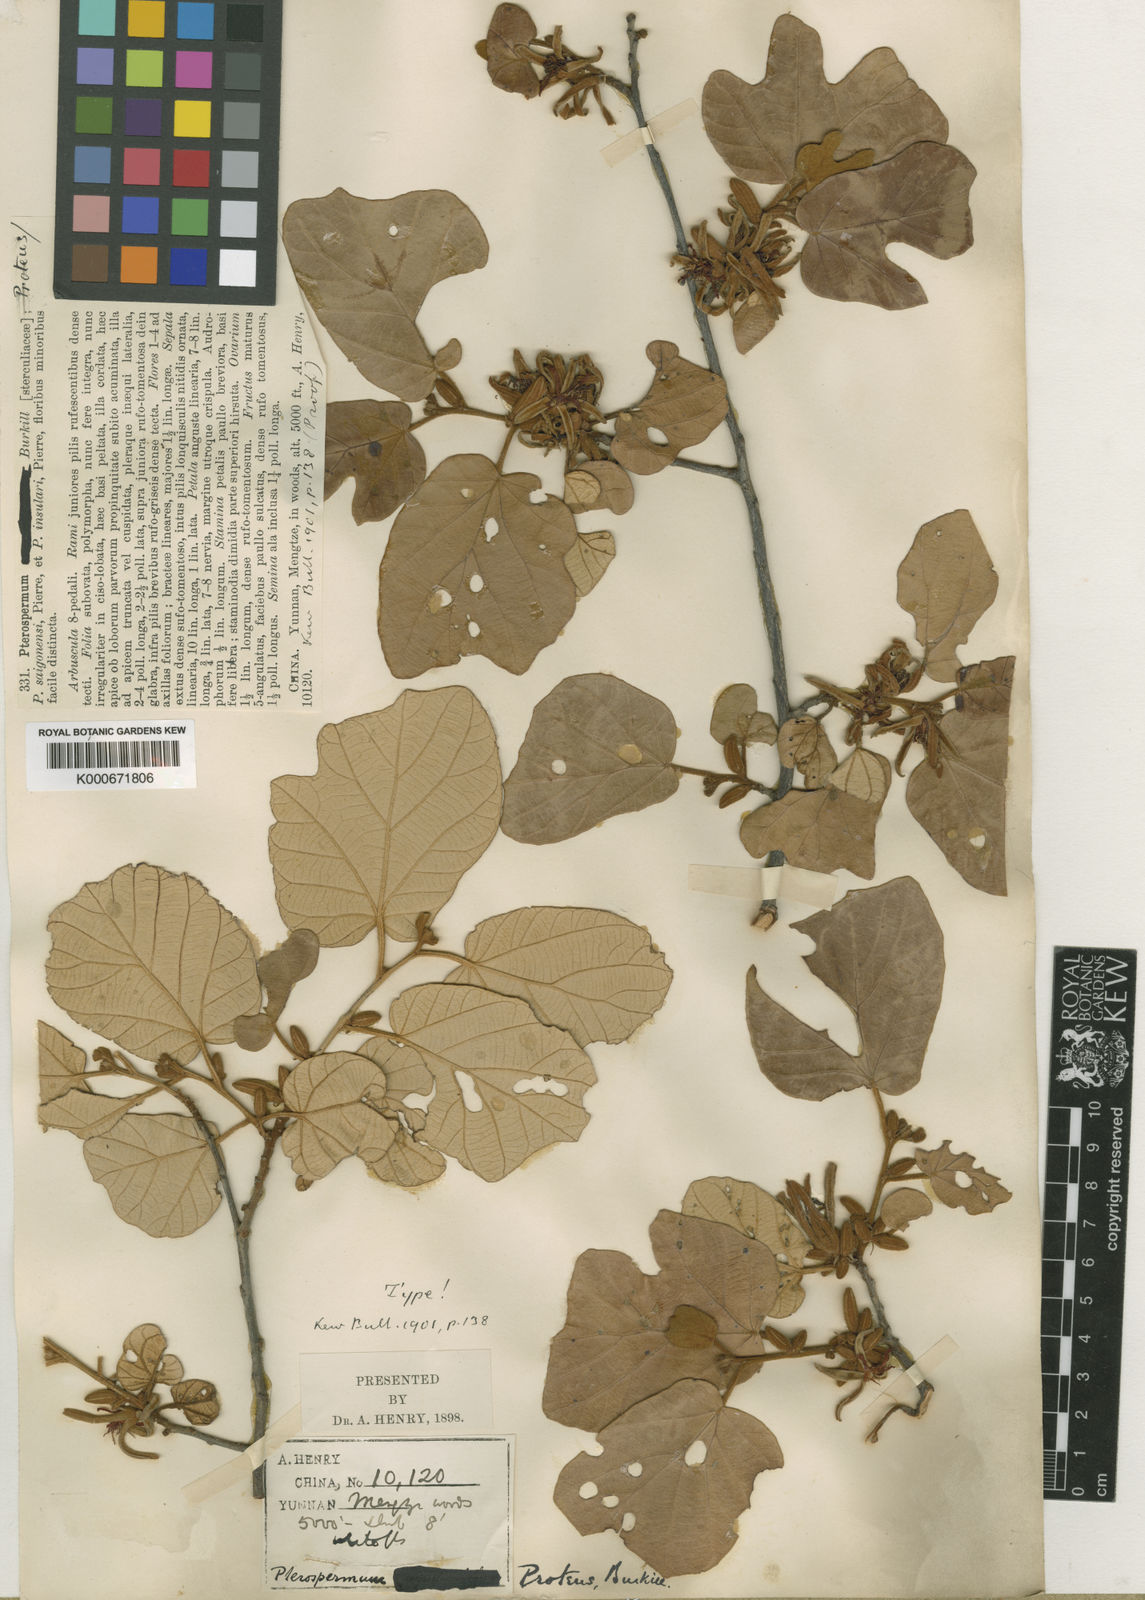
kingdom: Plantae
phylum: Tracheophyta
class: Magnoliopsida
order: Malvales
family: Malvaceae
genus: Pterospermum
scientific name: Pterospermum proteus
